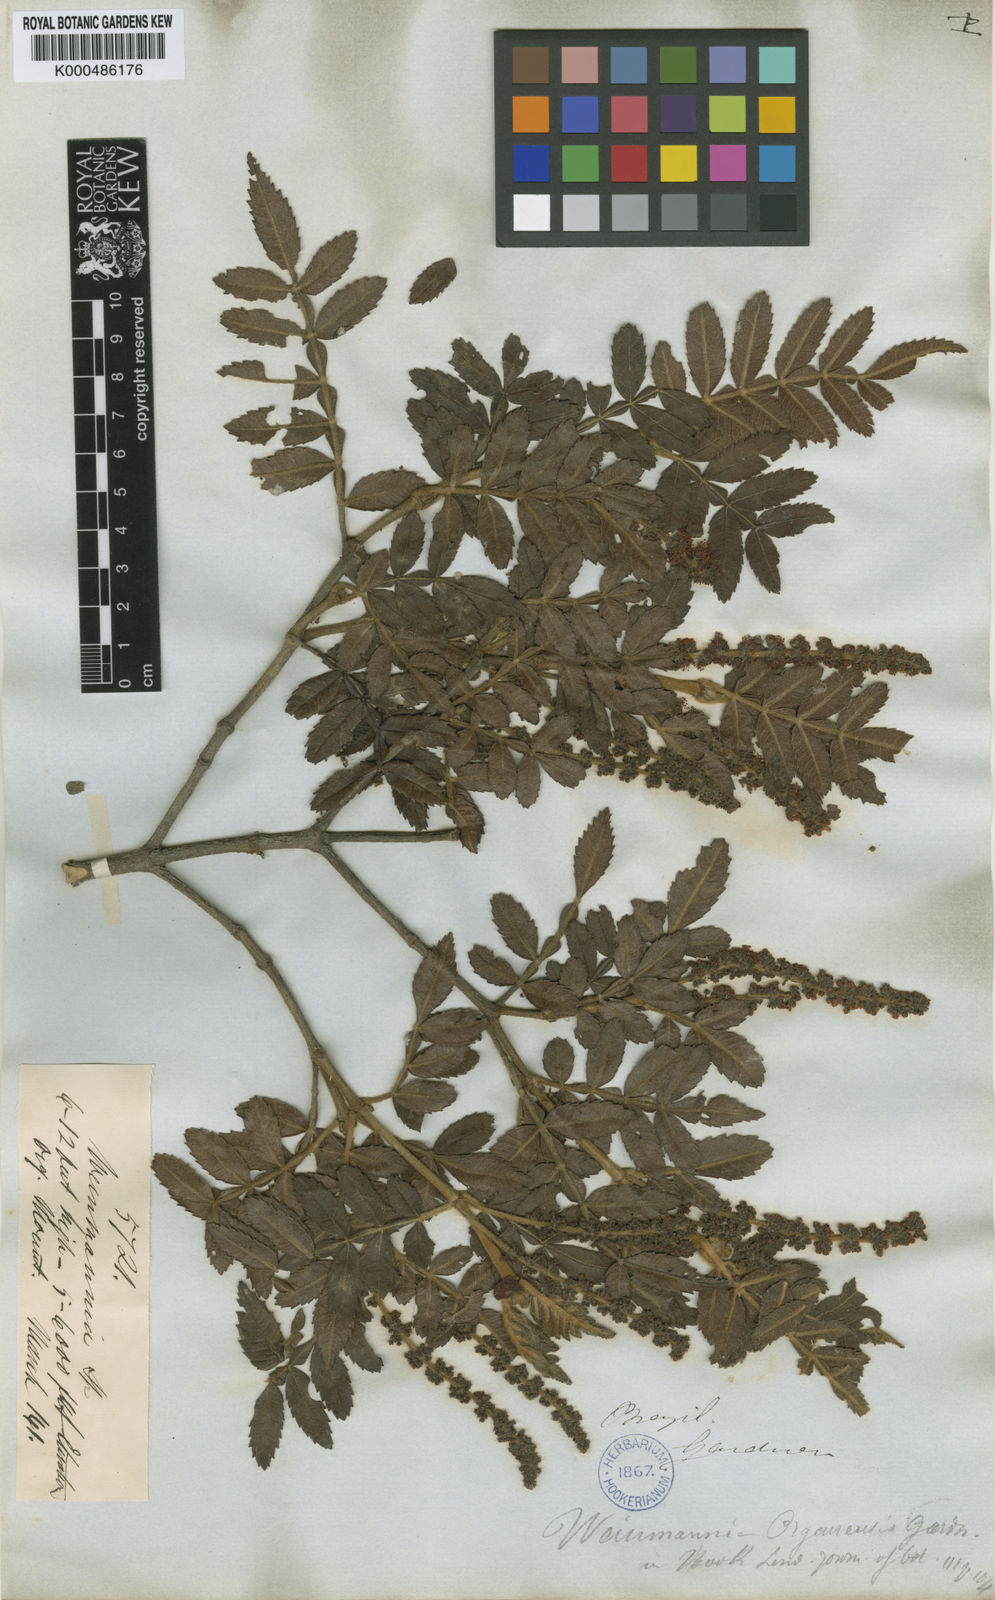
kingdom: Plantae
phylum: Tracheophyta
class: Magnoliopsida
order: Oxalidales
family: Cunoniaceae
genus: Weinmannia
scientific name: Weinmannia organensis
